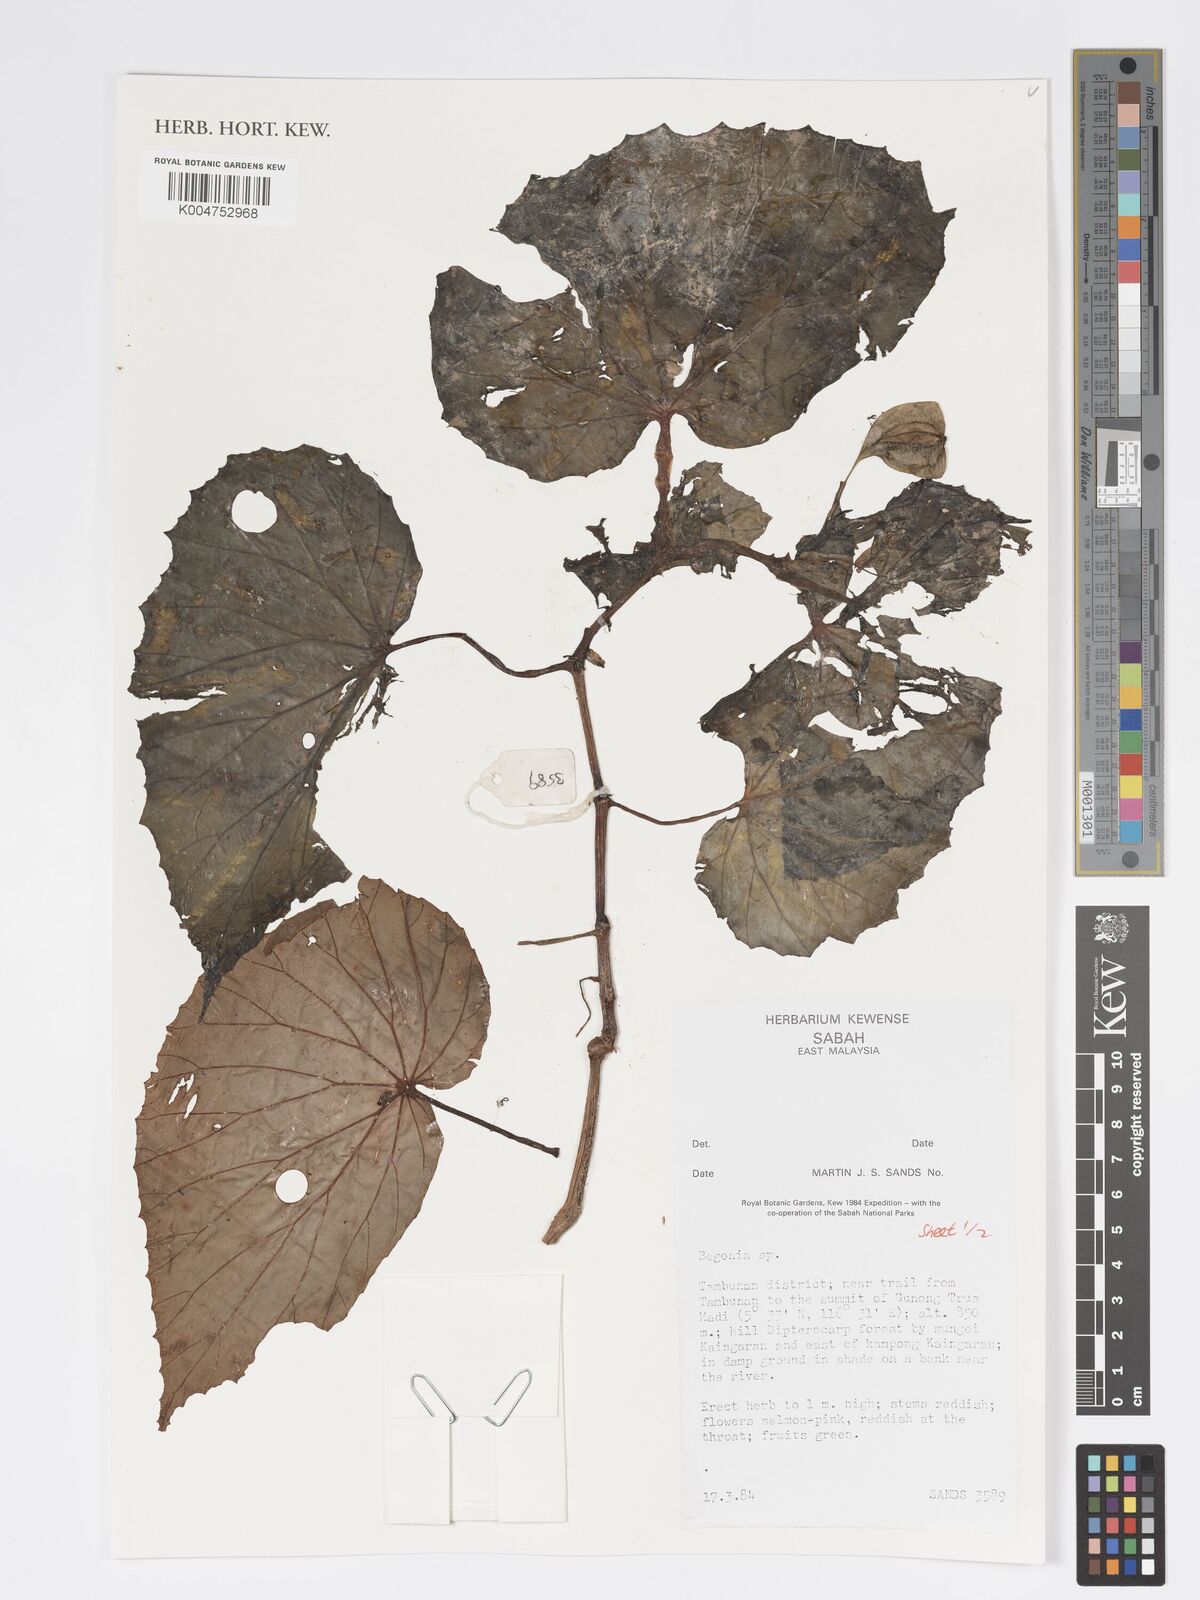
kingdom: Plantae
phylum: Tracheophyta
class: Magnoliopsida
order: Cucurbitales
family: Begoniaceae
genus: Begonia
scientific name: Begonia
